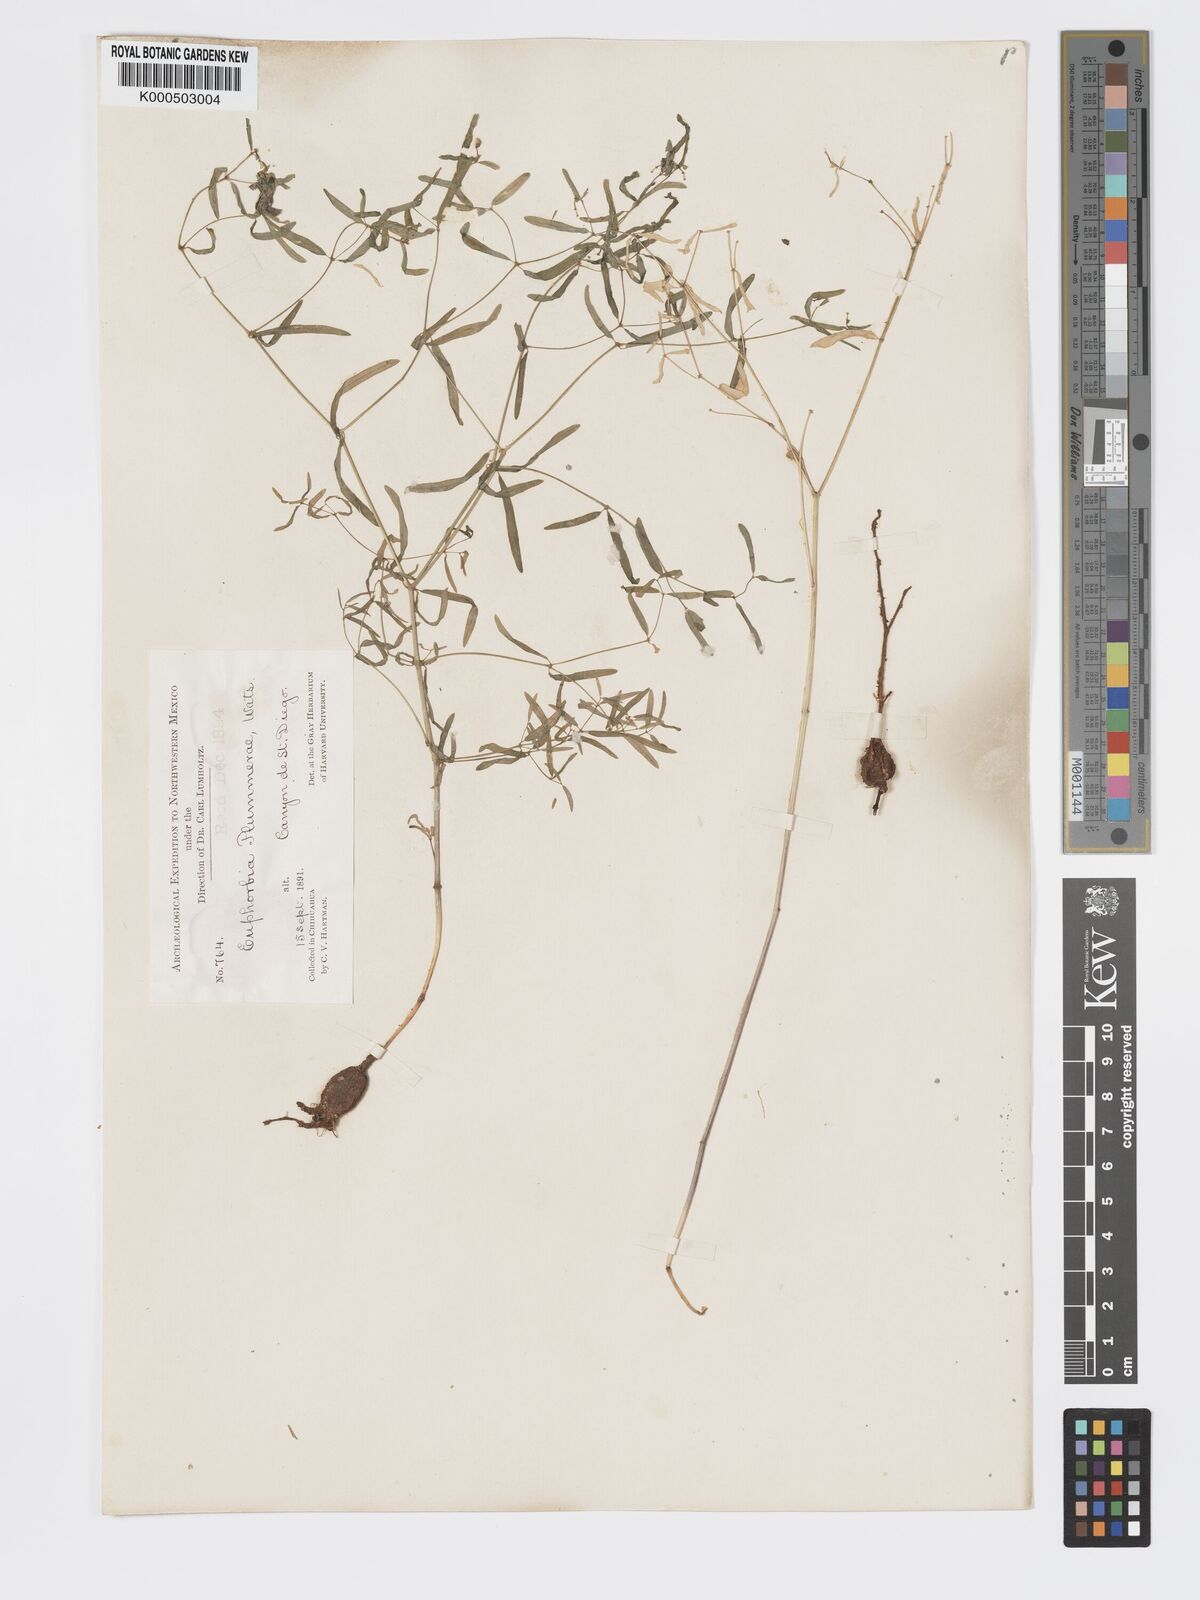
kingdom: Plantae
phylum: Tracheophyta
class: Magnoliopsida
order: Malpighiales
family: Euphorbiaceae
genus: Euphorbia
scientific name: Euphorbia macropus
